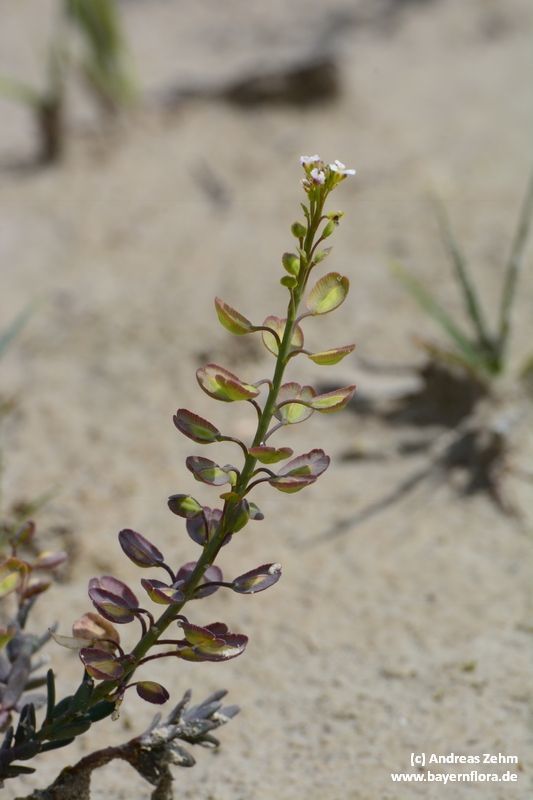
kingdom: Plantae
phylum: Tracheophyta
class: Magnoliopsida
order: Brassicales
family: Brassicaceae
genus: Aethionema
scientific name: Aethionema saxatile
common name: Burnt candytuft
